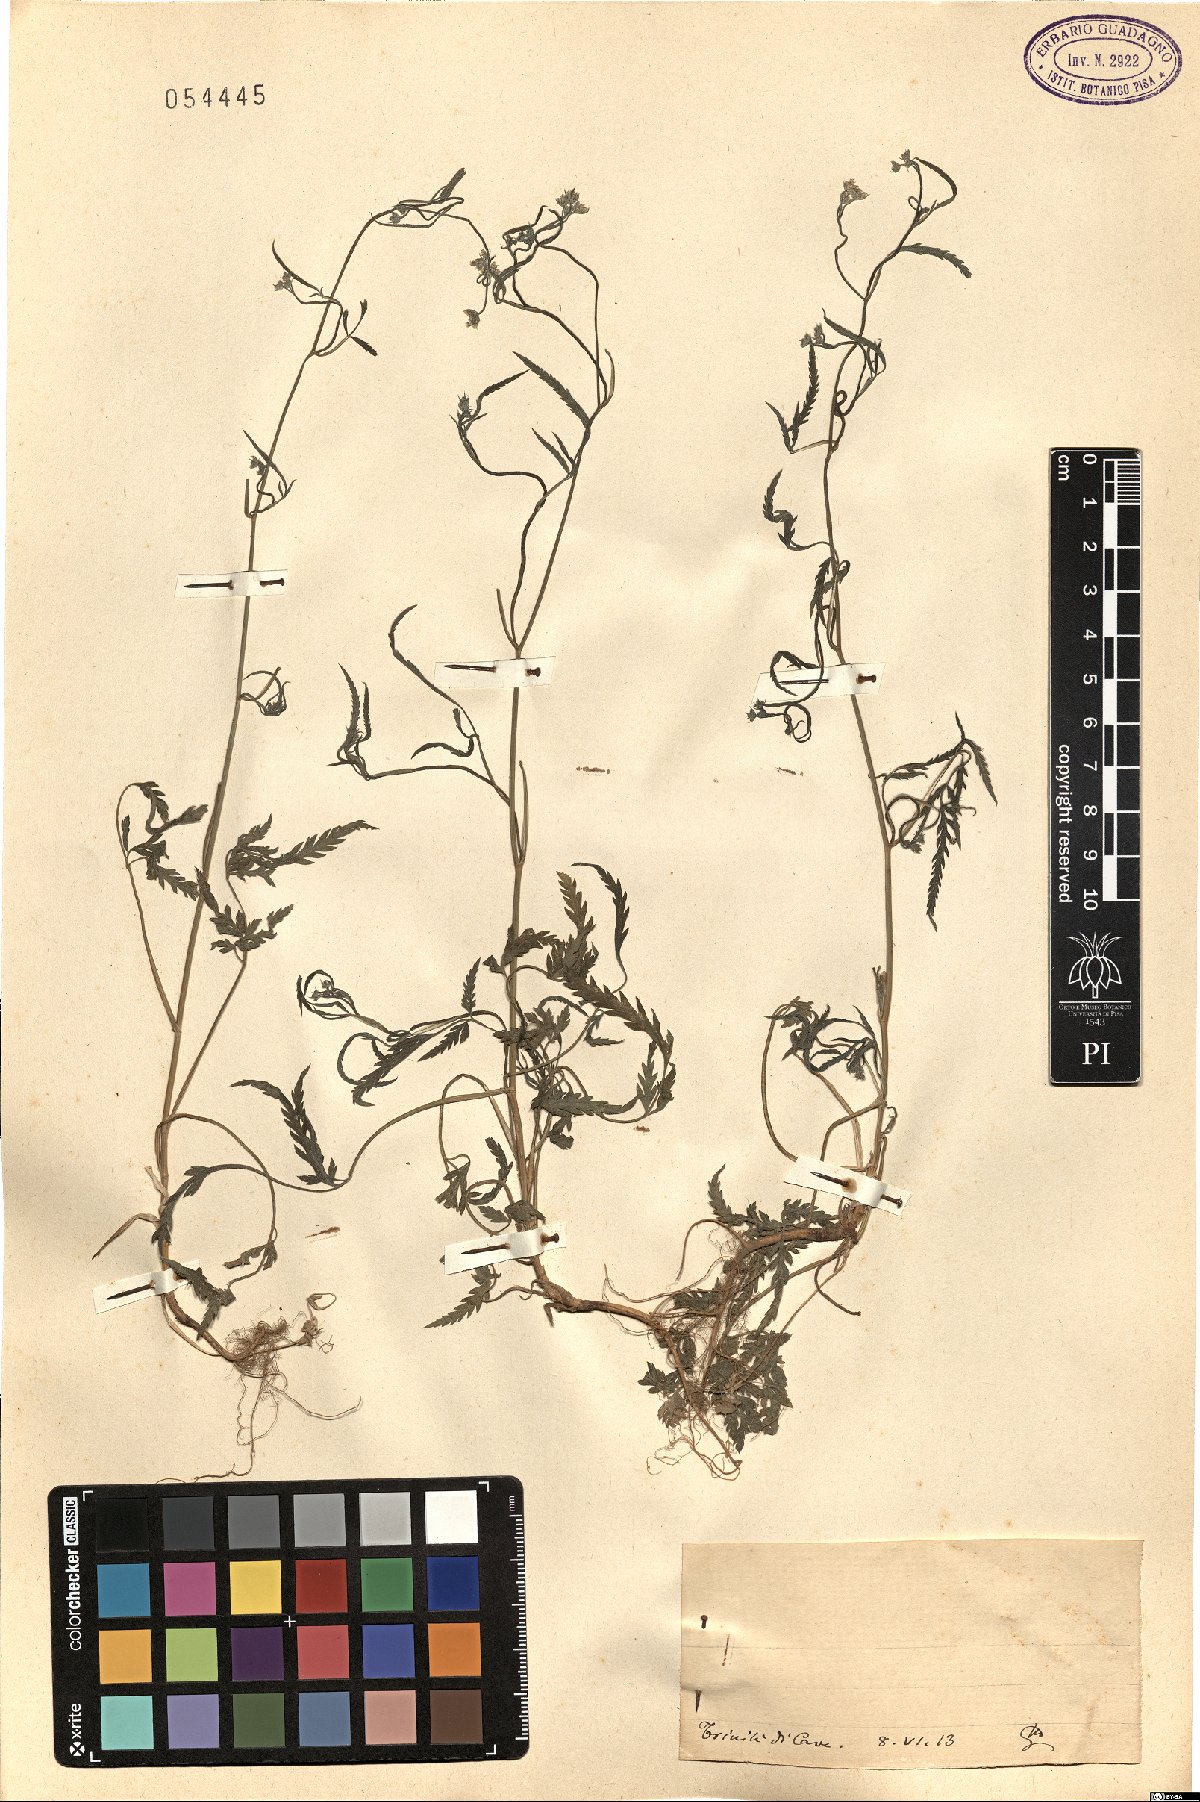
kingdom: Plantae
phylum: Tracheophyta
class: Magnoliopsida
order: Apiales
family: Apiaceae
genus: Torilis
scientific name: Torilis
